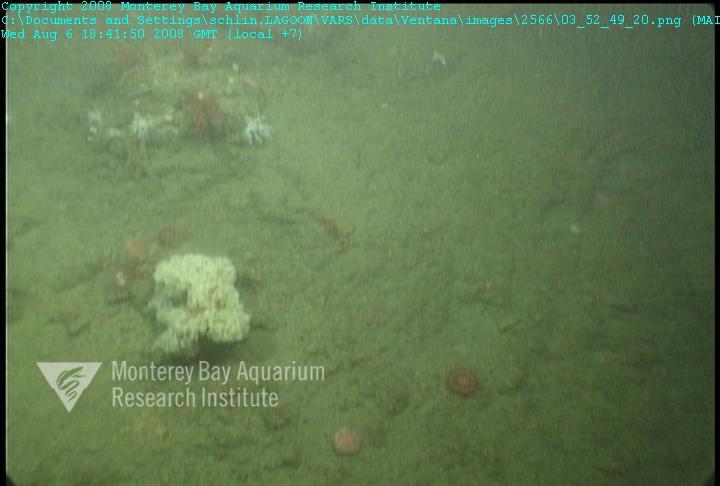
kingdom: Animalia
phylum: Porifera
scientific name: Porifera
